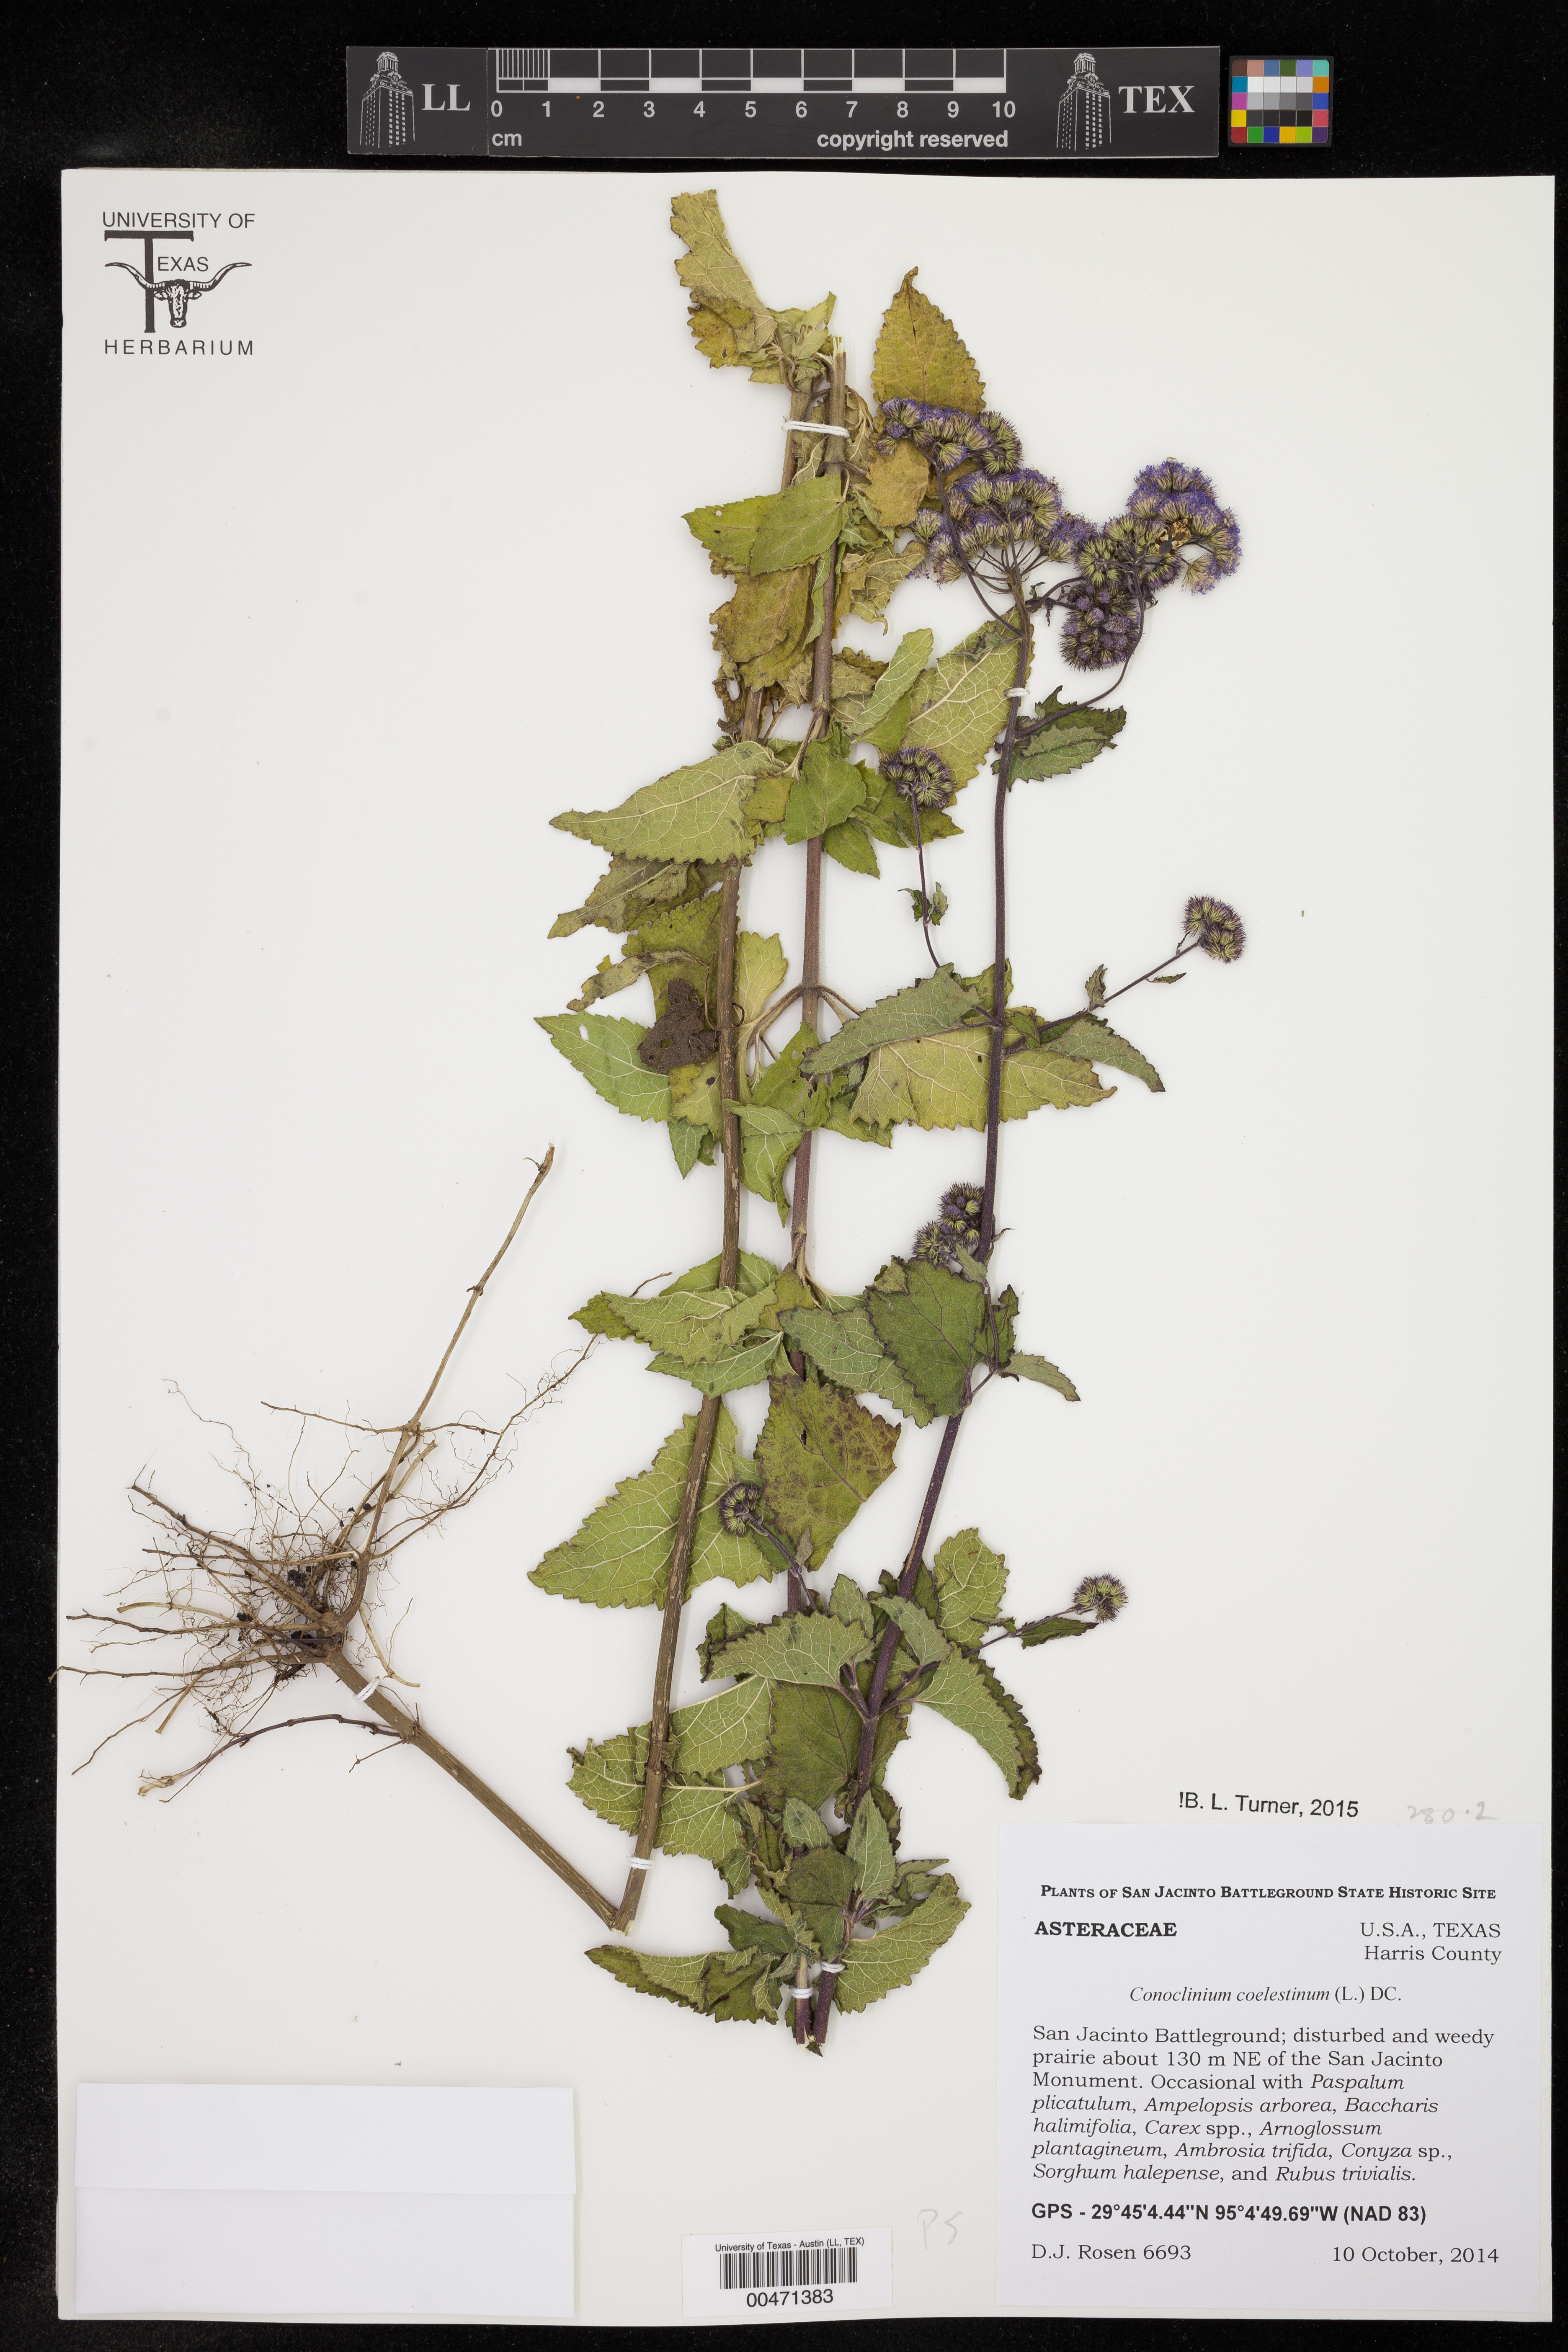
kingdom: Plantae
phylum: Tracheophyta
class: Magnoliopsida
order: Asterales
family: Asteraceae
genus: Conoclinium
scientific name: Conoclinium coelestinum
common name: Blue mistflower
